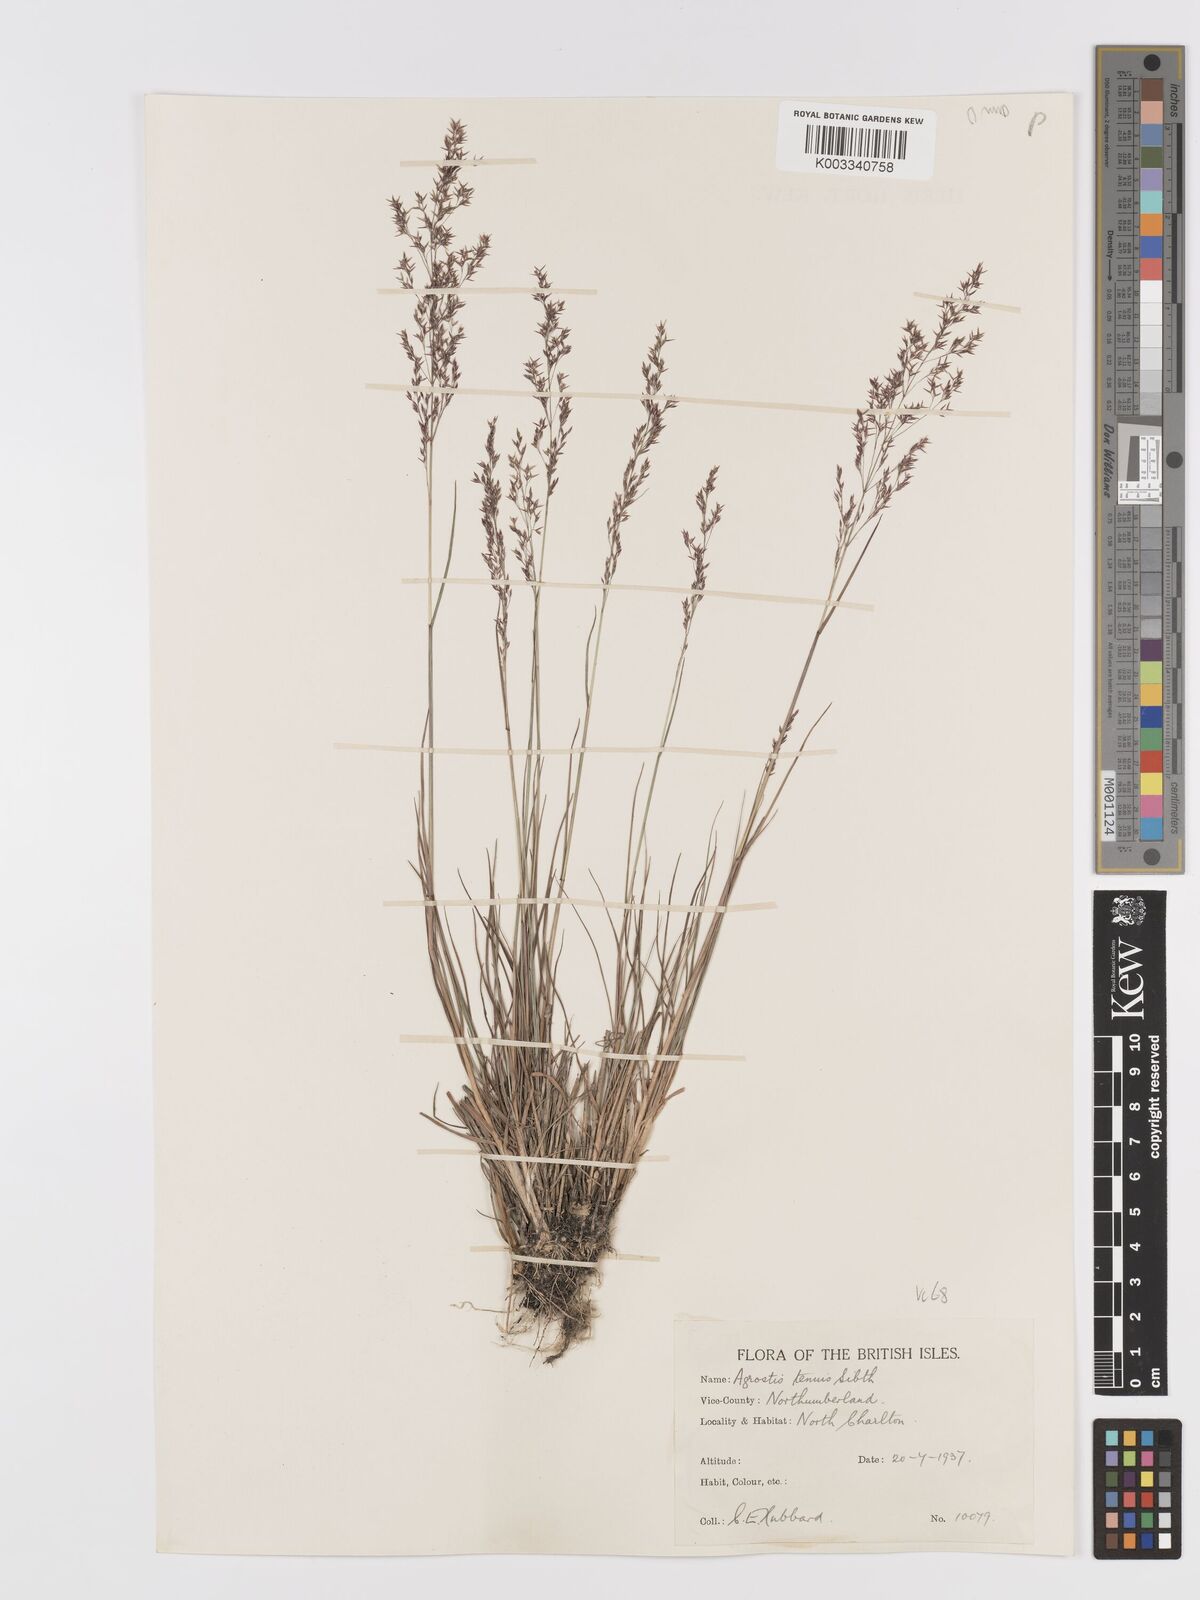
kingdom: Plantae
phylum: Tracheophyta
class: Liliopsida
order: Poales
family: Poaceae
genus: Agrostis
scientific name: Agrostis capillaris
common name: Colonial bentgrass
